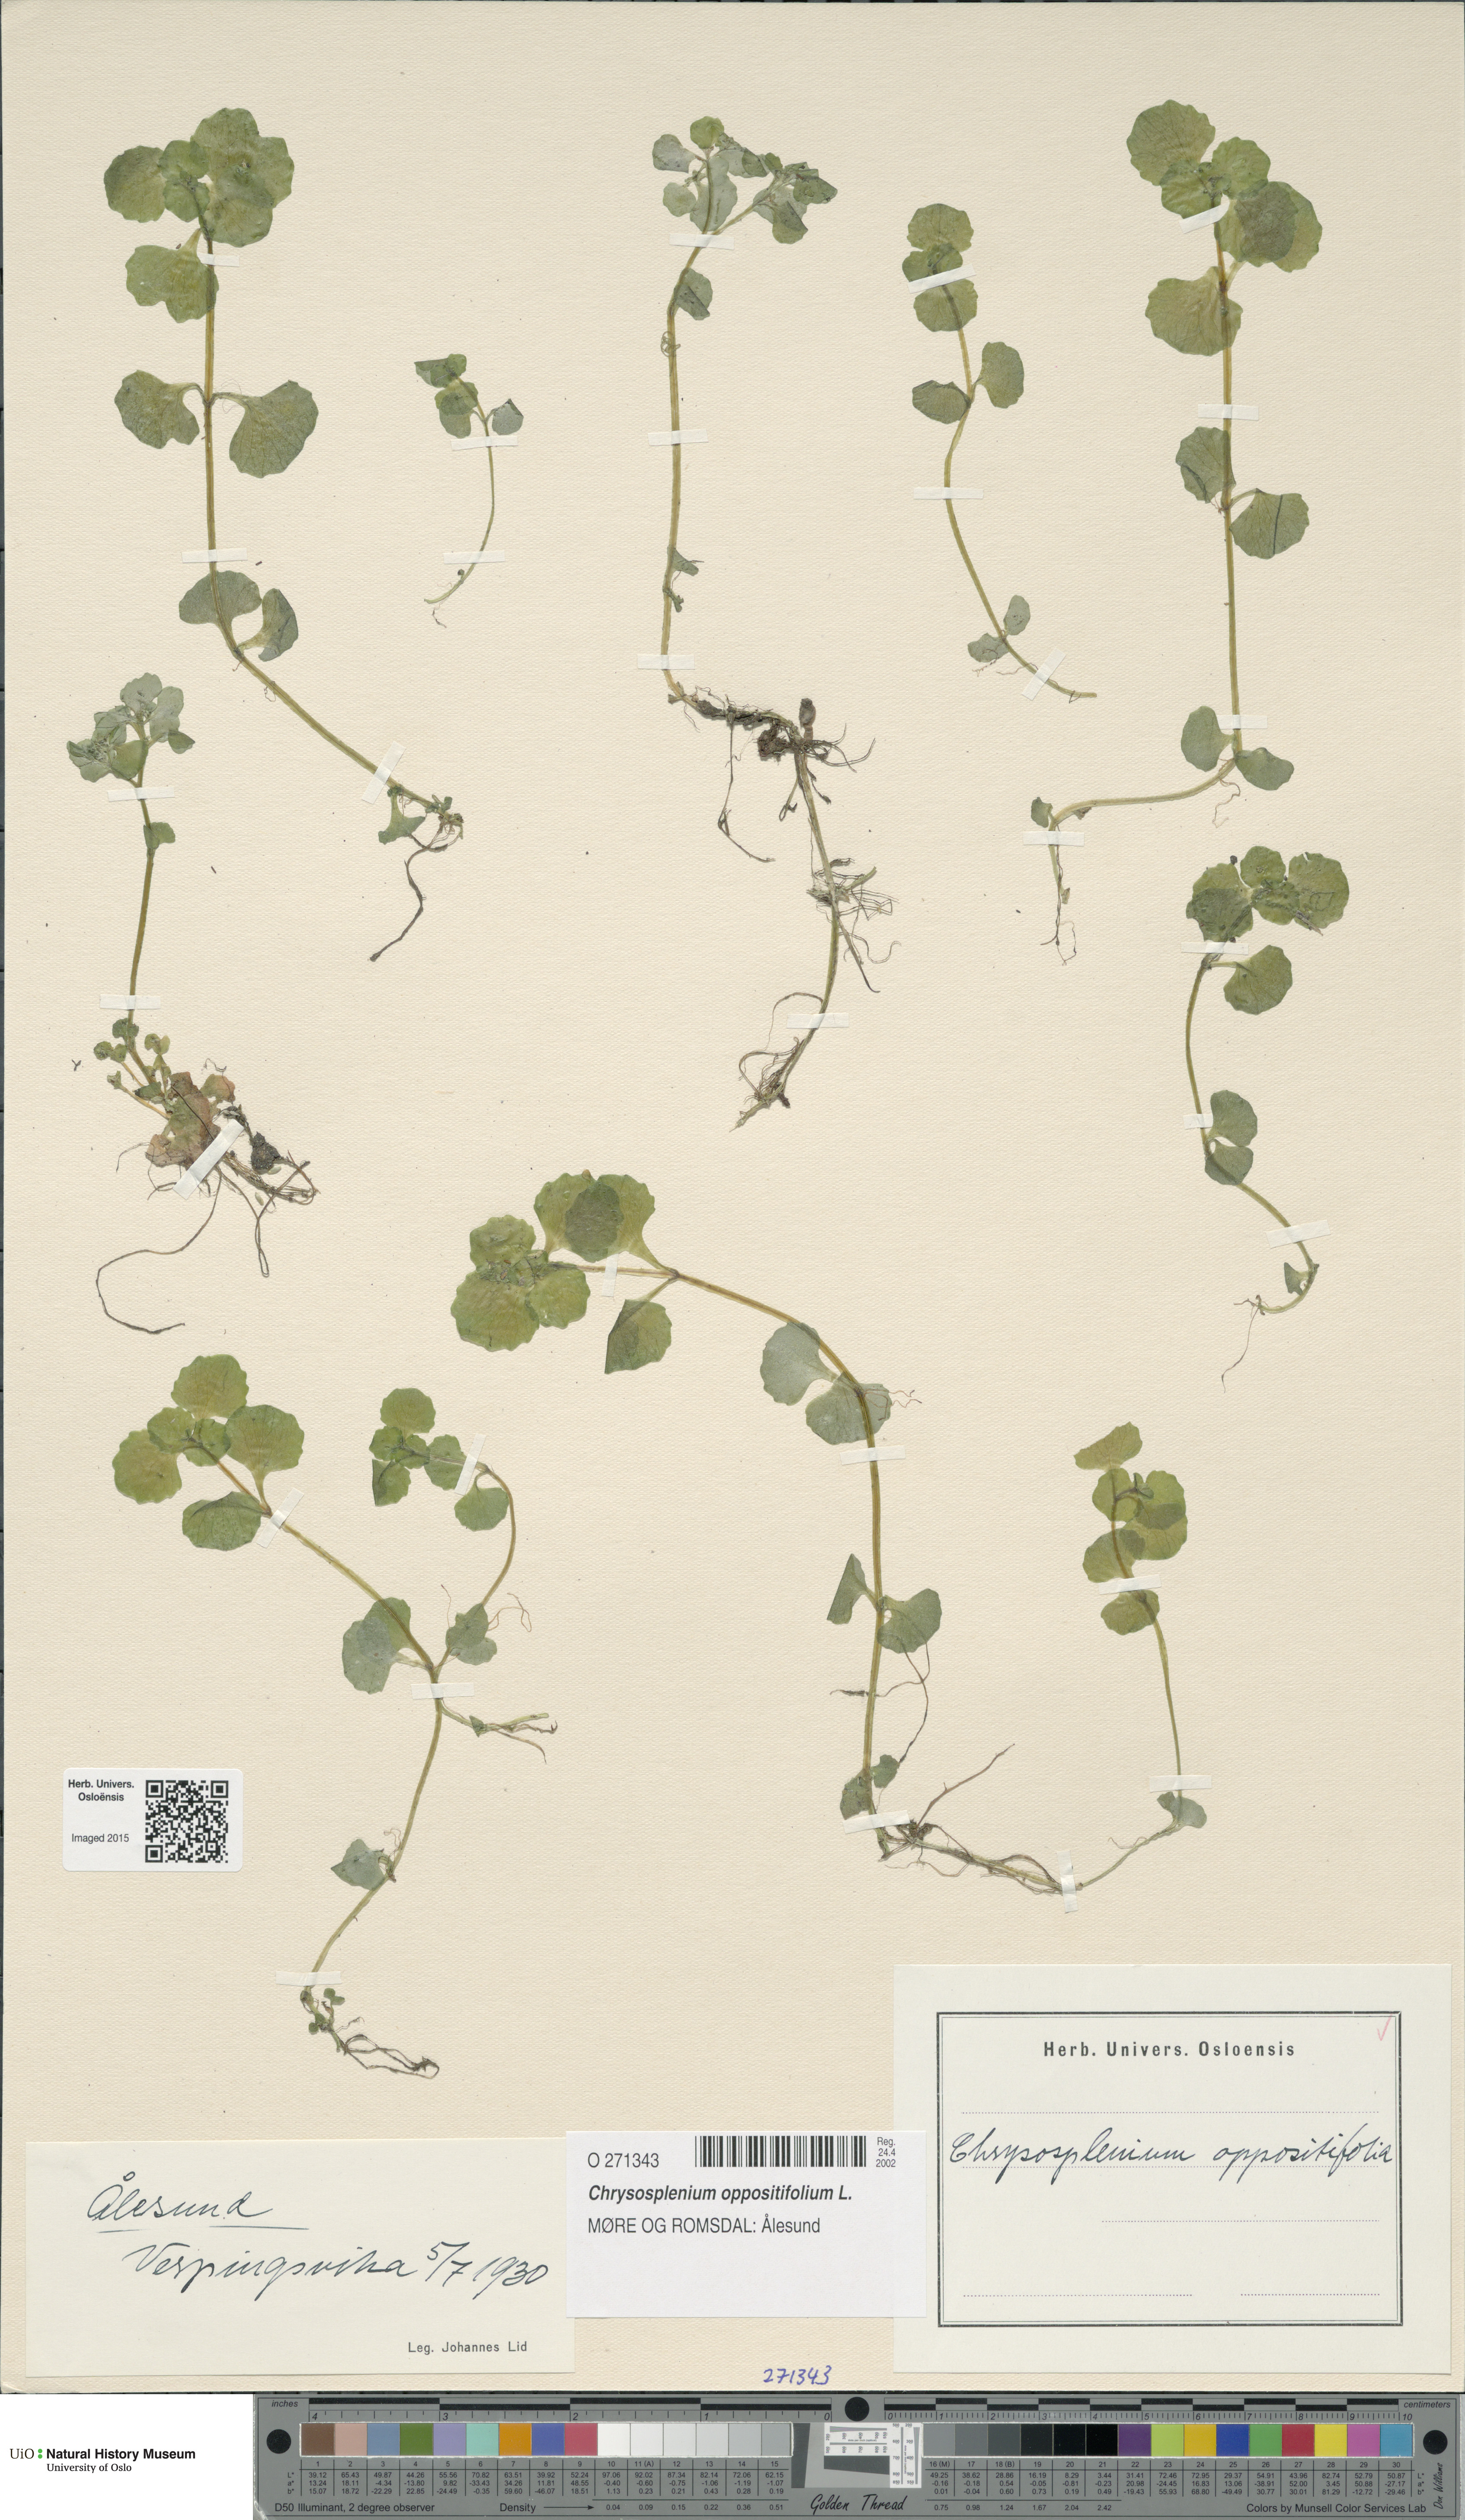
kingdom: Plantae
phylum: Tracheophyta
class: Magnoliopsida
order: Saxifragales
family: Saxifragaceae
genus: Chrysosplenium
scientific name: Chrysosplenium oppositifolium
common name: Opposite-leaved golden-saxifrage
